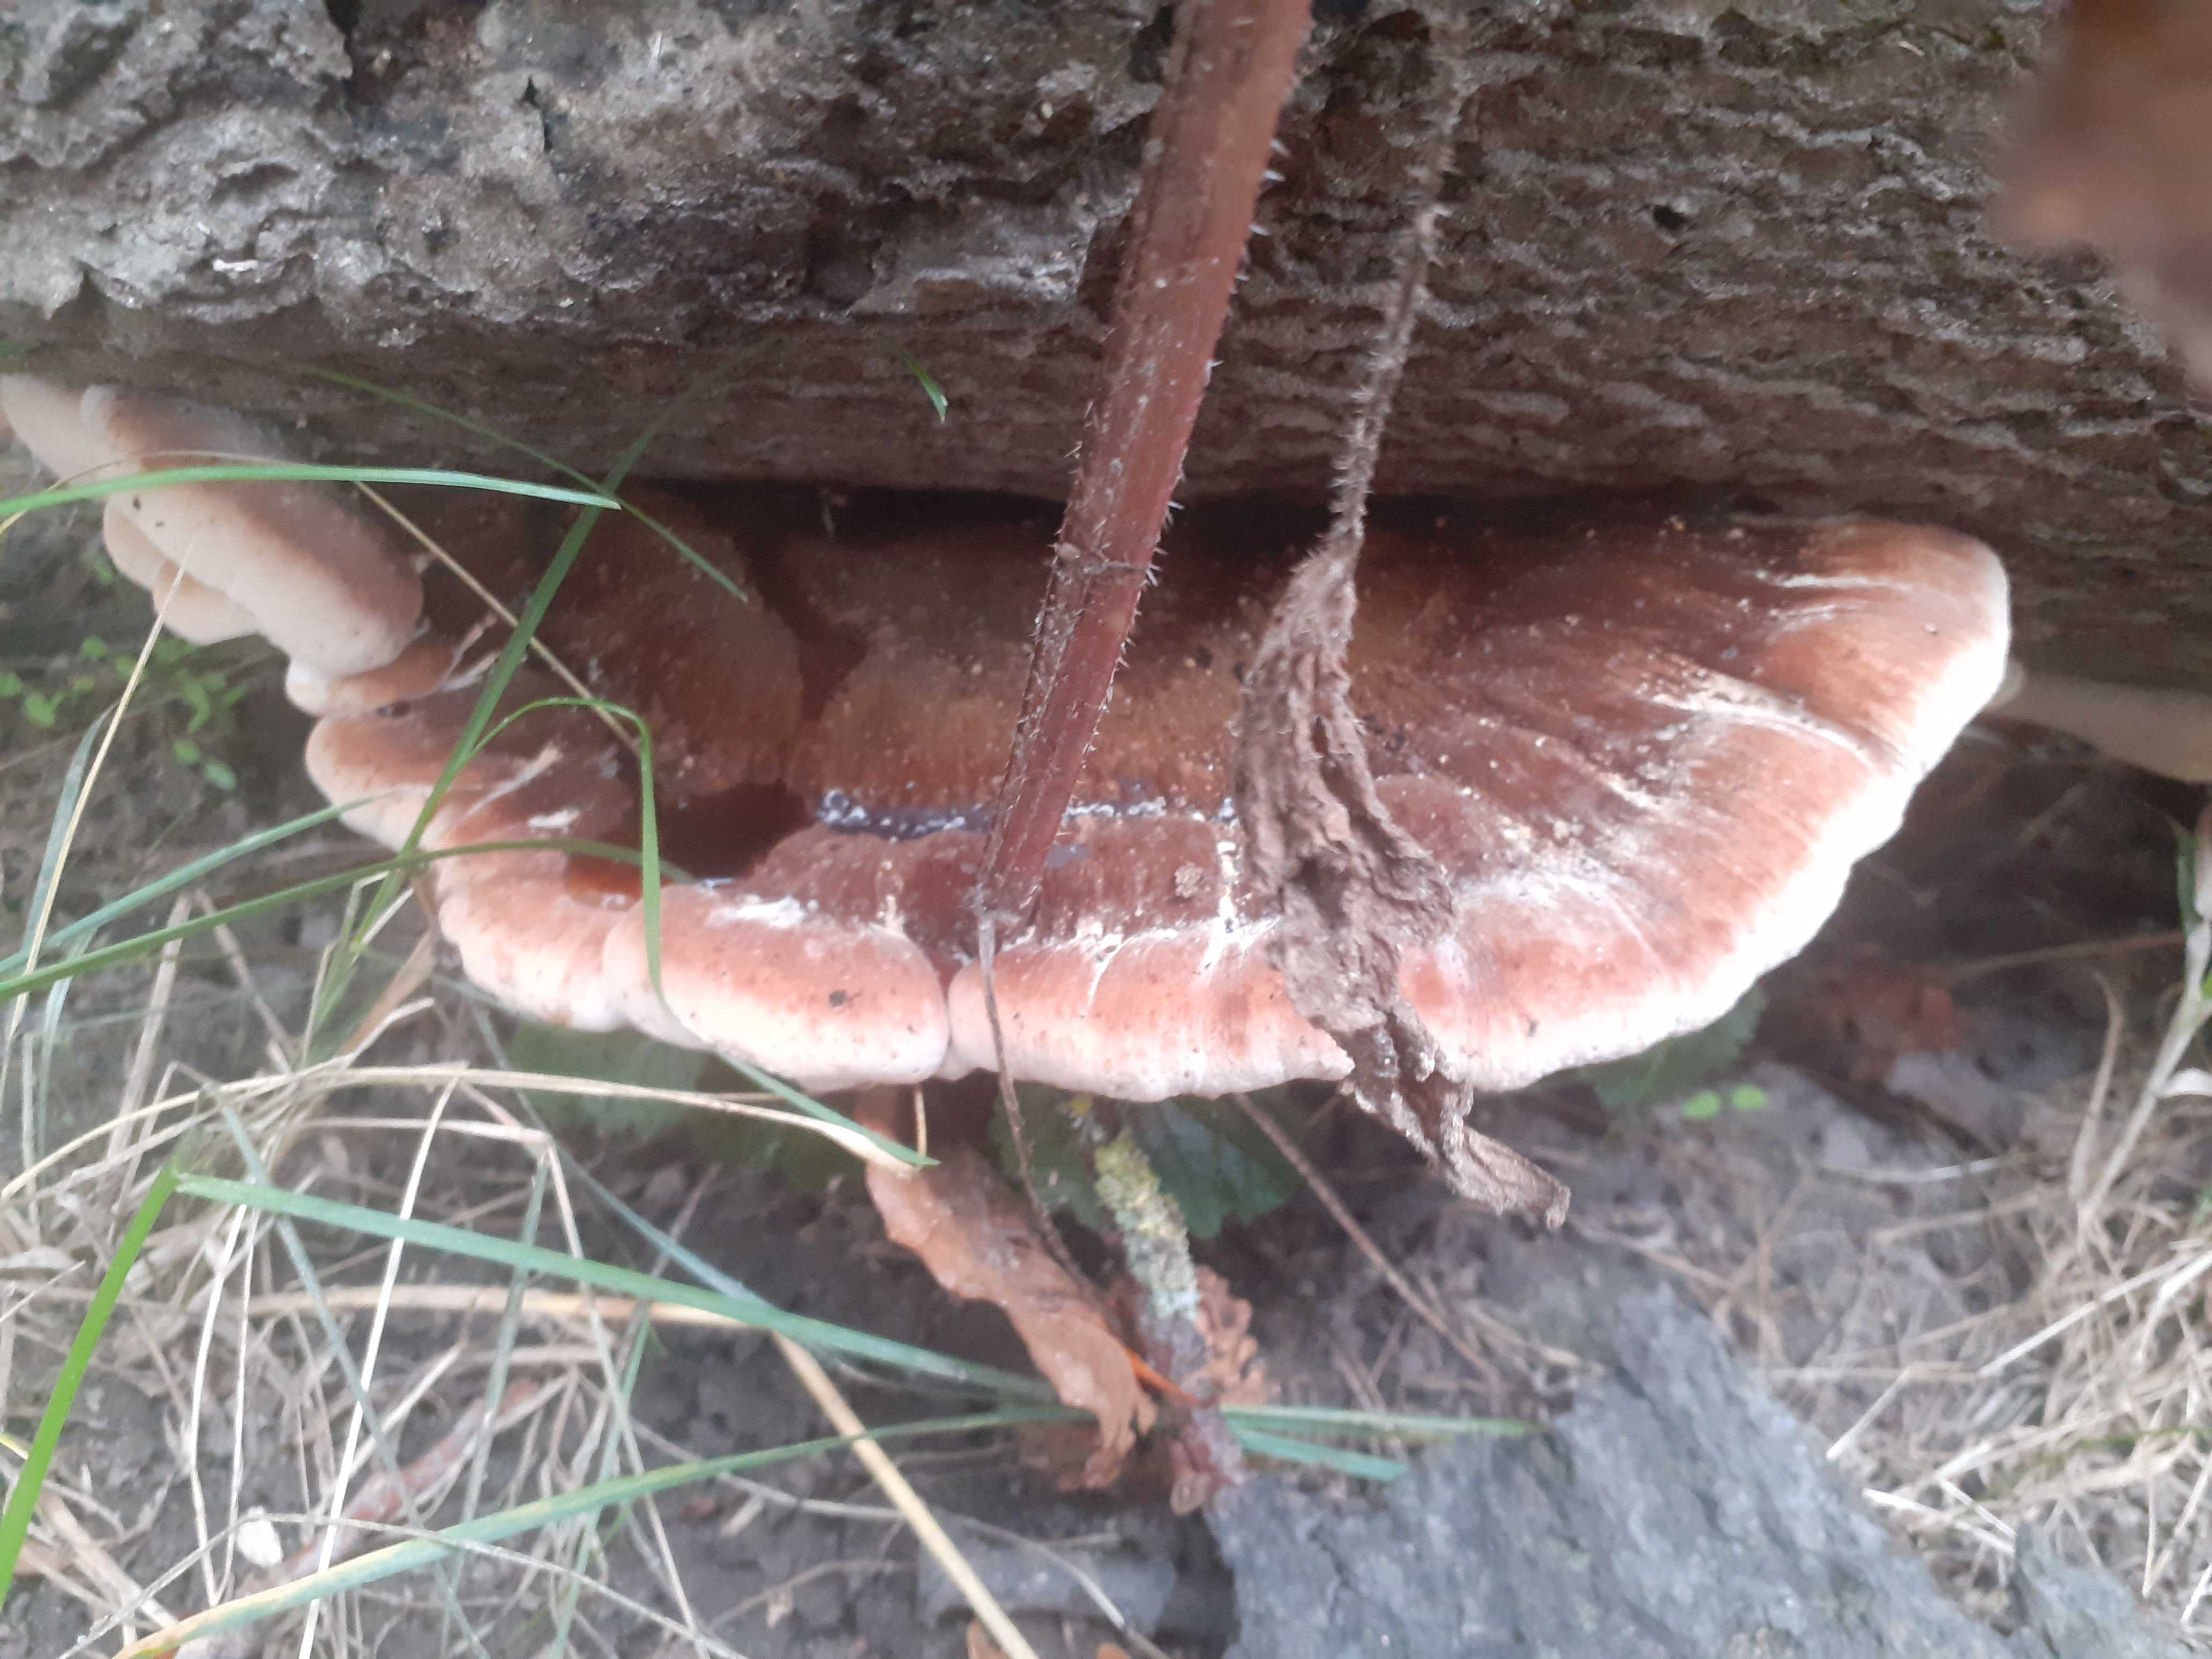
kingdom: Fungi
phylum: Basidiomycota
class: Agaricomycetes
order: Polyporales
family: Ischnodermataceae
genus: Ischnoderma
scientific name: Ischnoderma resinosum
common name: løv-tjæreporesvamp
